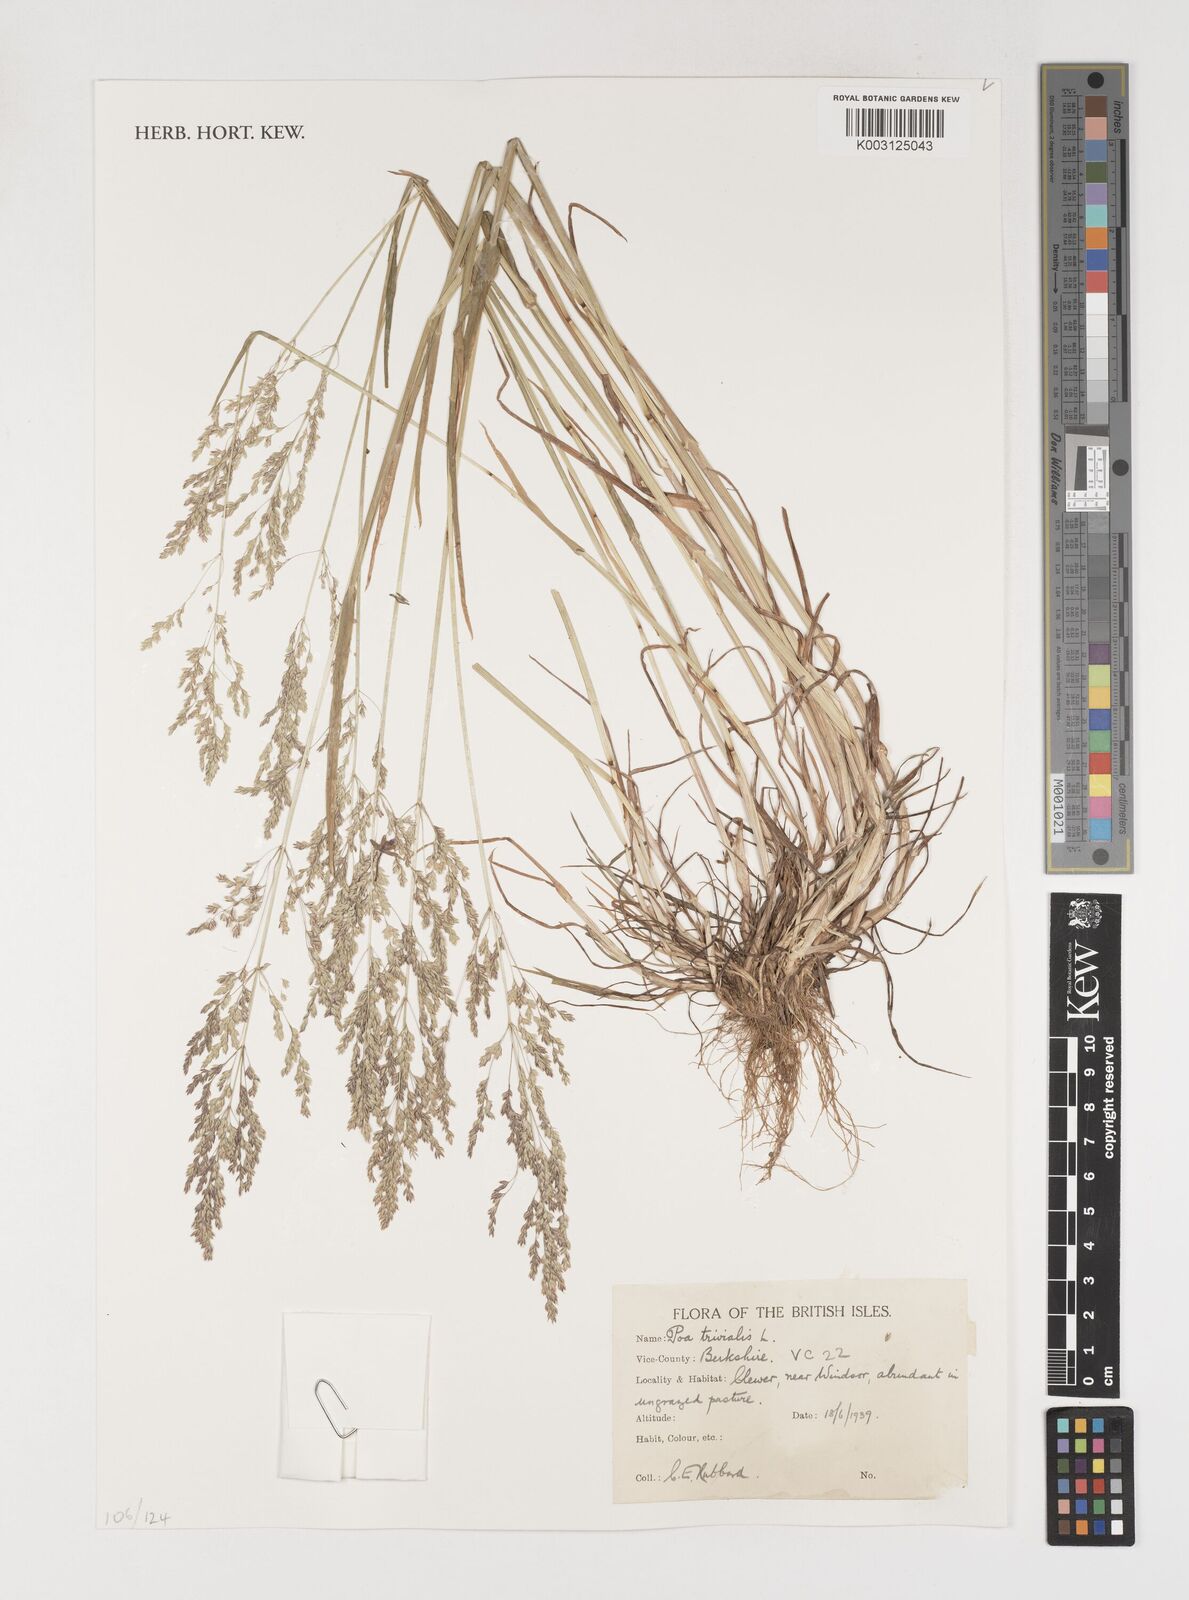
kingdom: Plantae
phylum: Tracheophyta
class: Liliopsida
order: Poales
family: Poaceae
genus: Poa
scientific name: Poa trivialis
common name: Rough bluegrass
